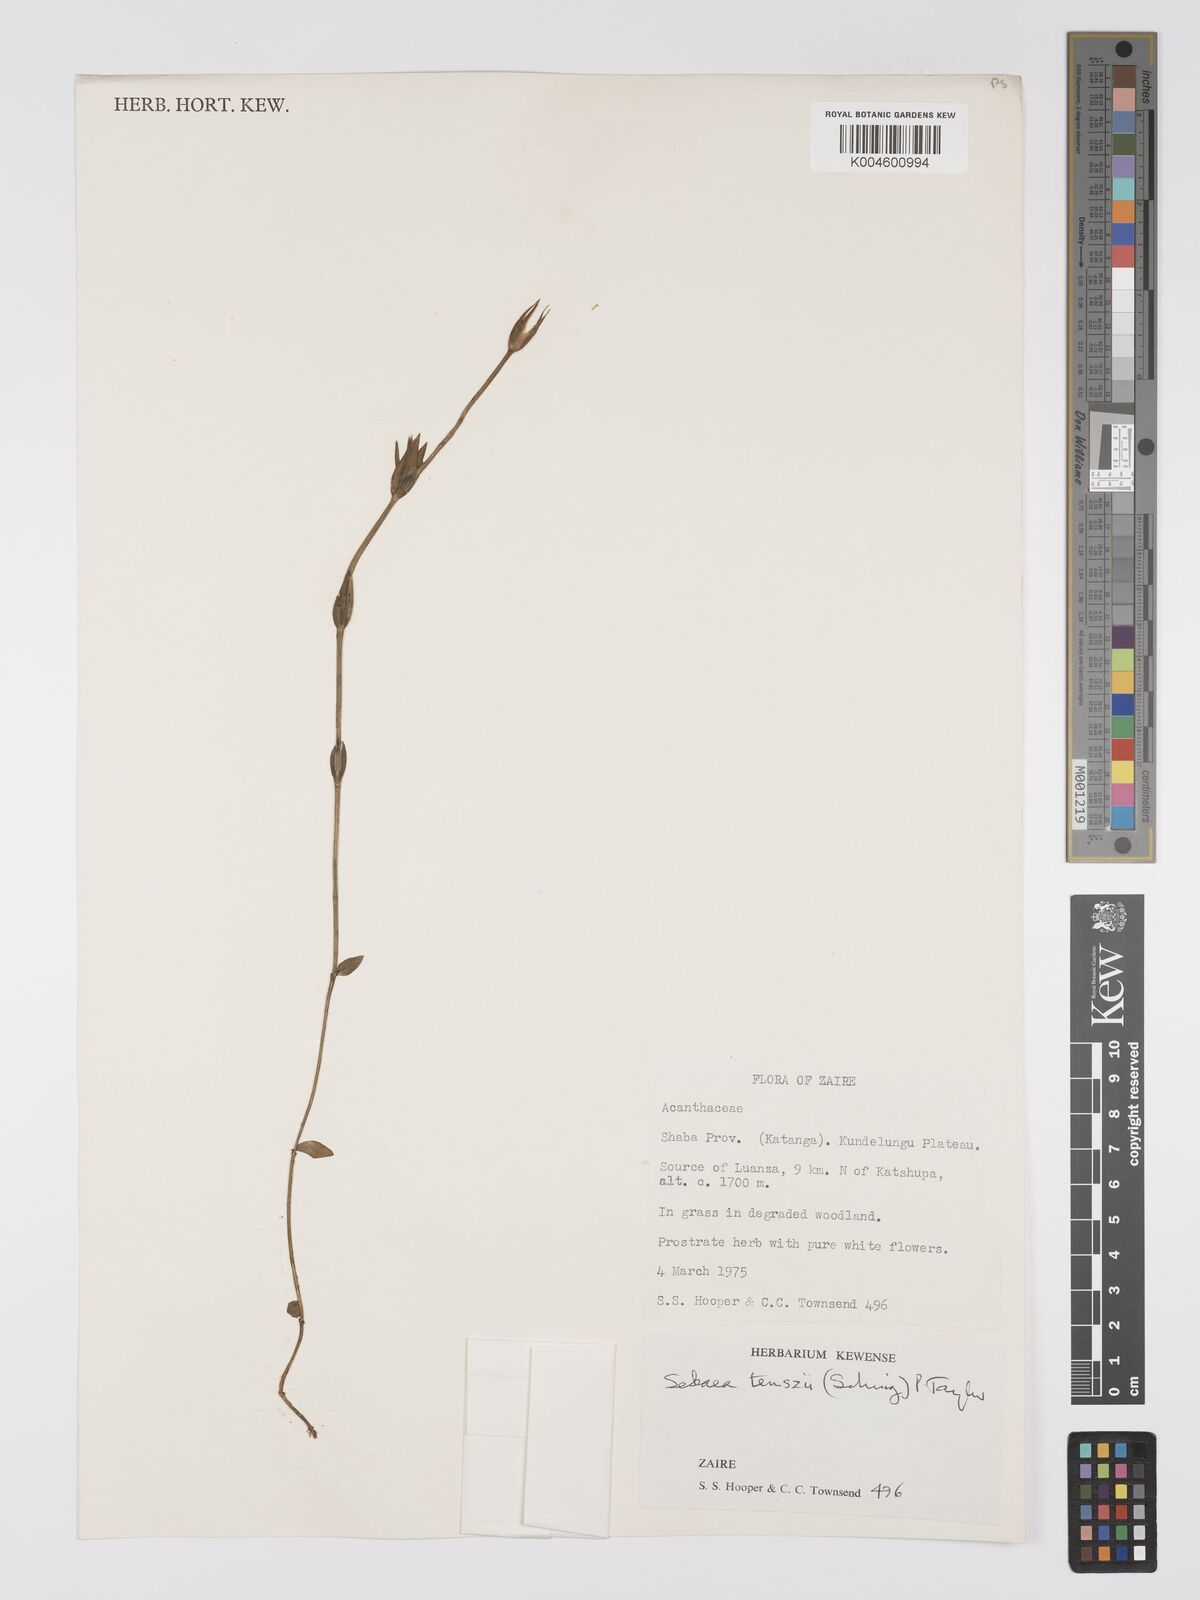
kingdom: Plantae
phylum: Tracheophyta
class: Magnoliopsida
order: Gentianales
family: Gentianaceae
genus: Exochaenium
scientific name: Exochaenium teuszii
